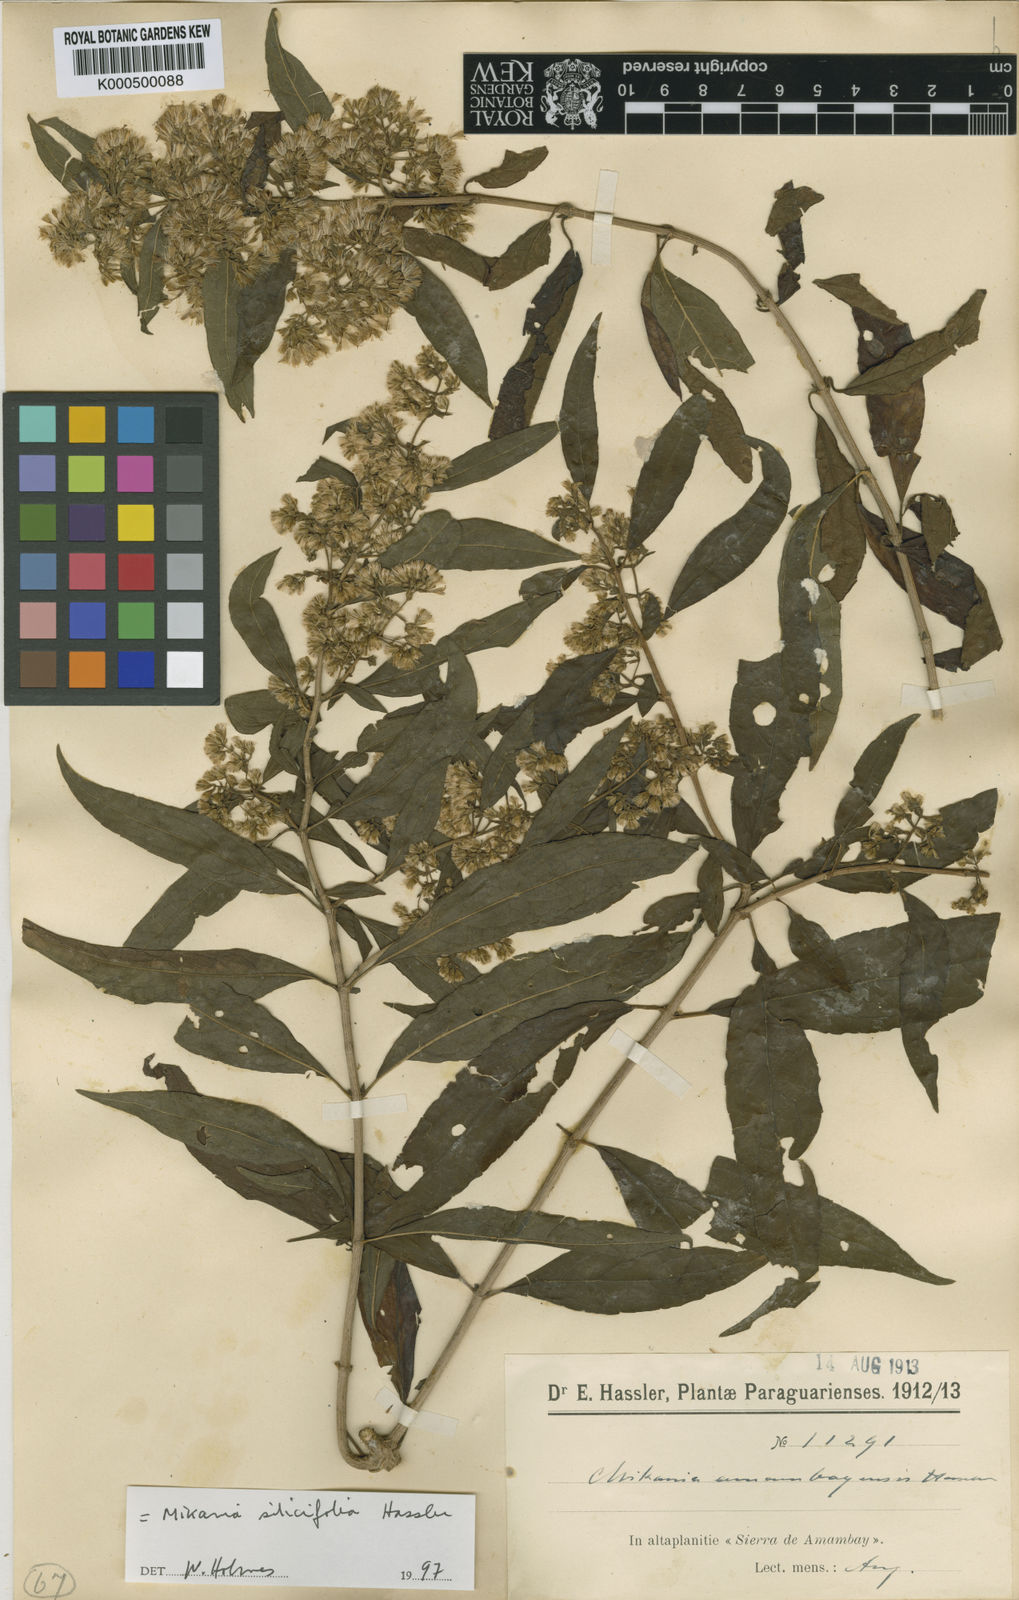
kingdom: Plantae
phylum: Tracheophyta
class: Magnoliopsida
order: Asterales
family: Asteraceae
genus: Mikania
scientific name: Mikania
